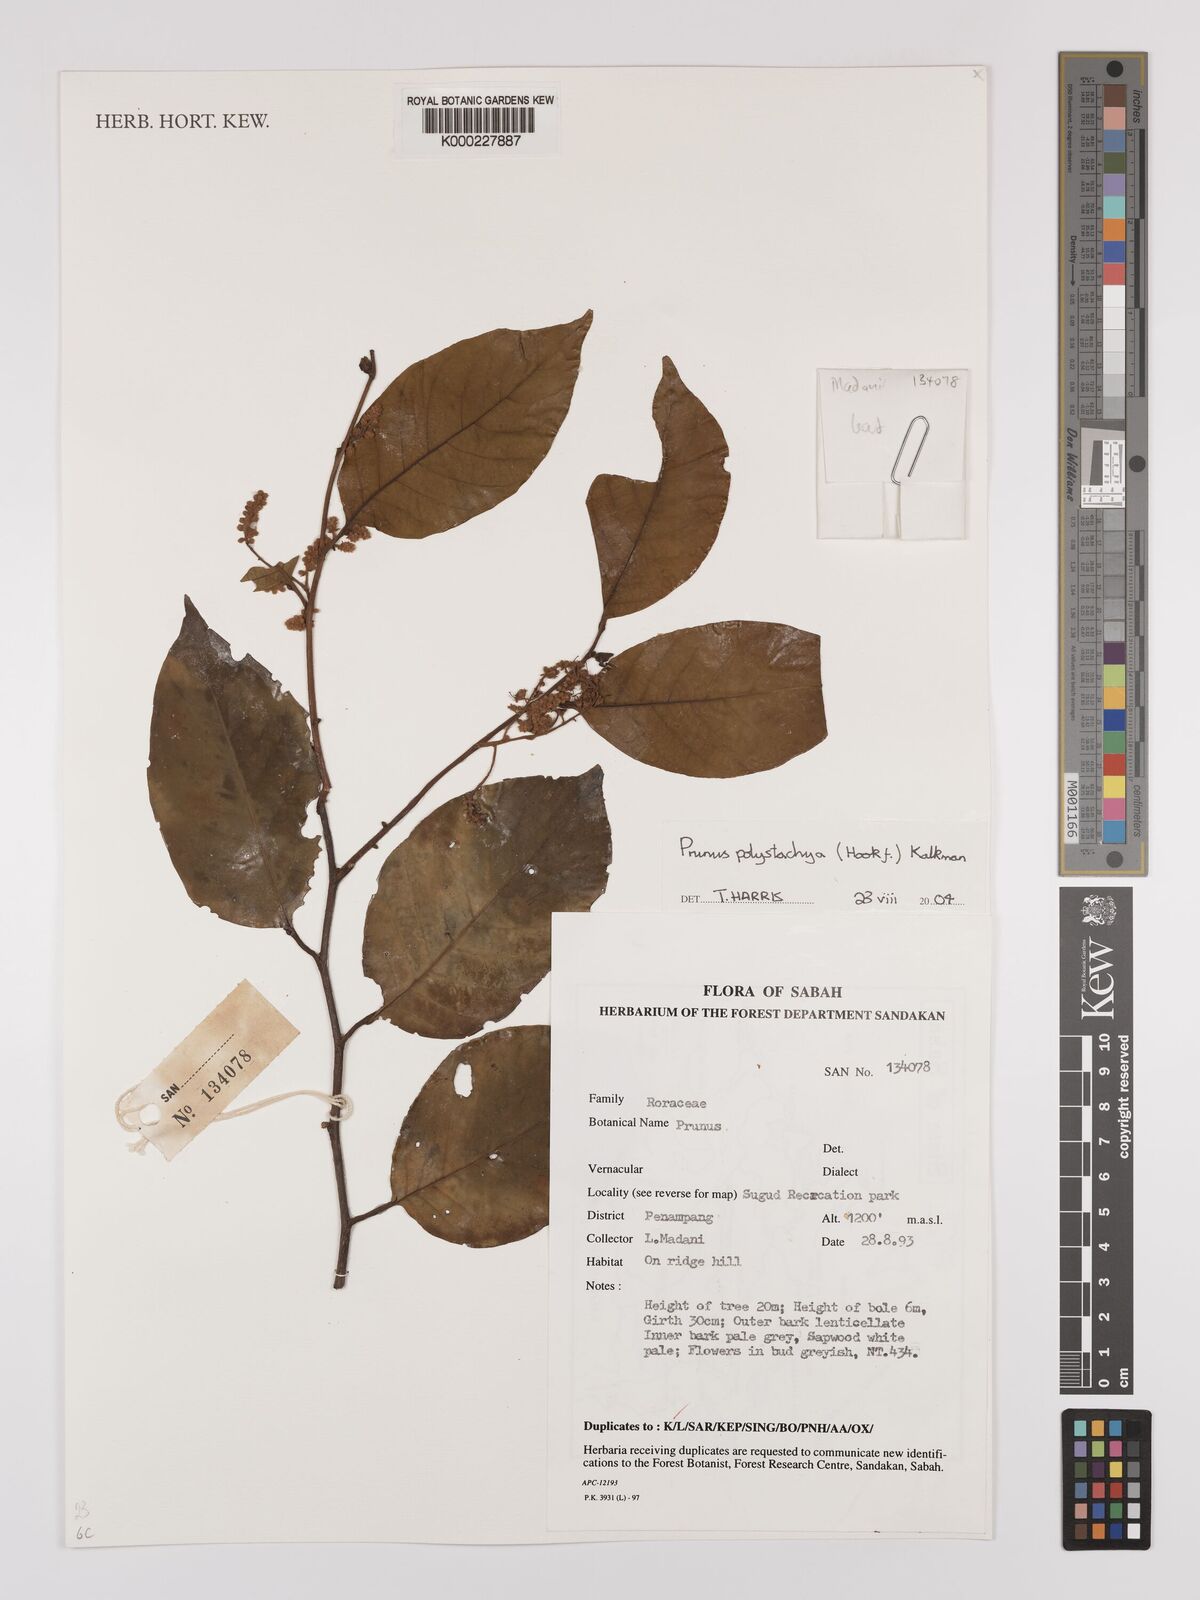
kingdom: Plantae
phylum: Tracheophyta
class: Magnoliopsida
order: Rosales
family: Rosaceae
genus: Prunus
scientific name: Prunus polystachya
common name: Bat laurel
